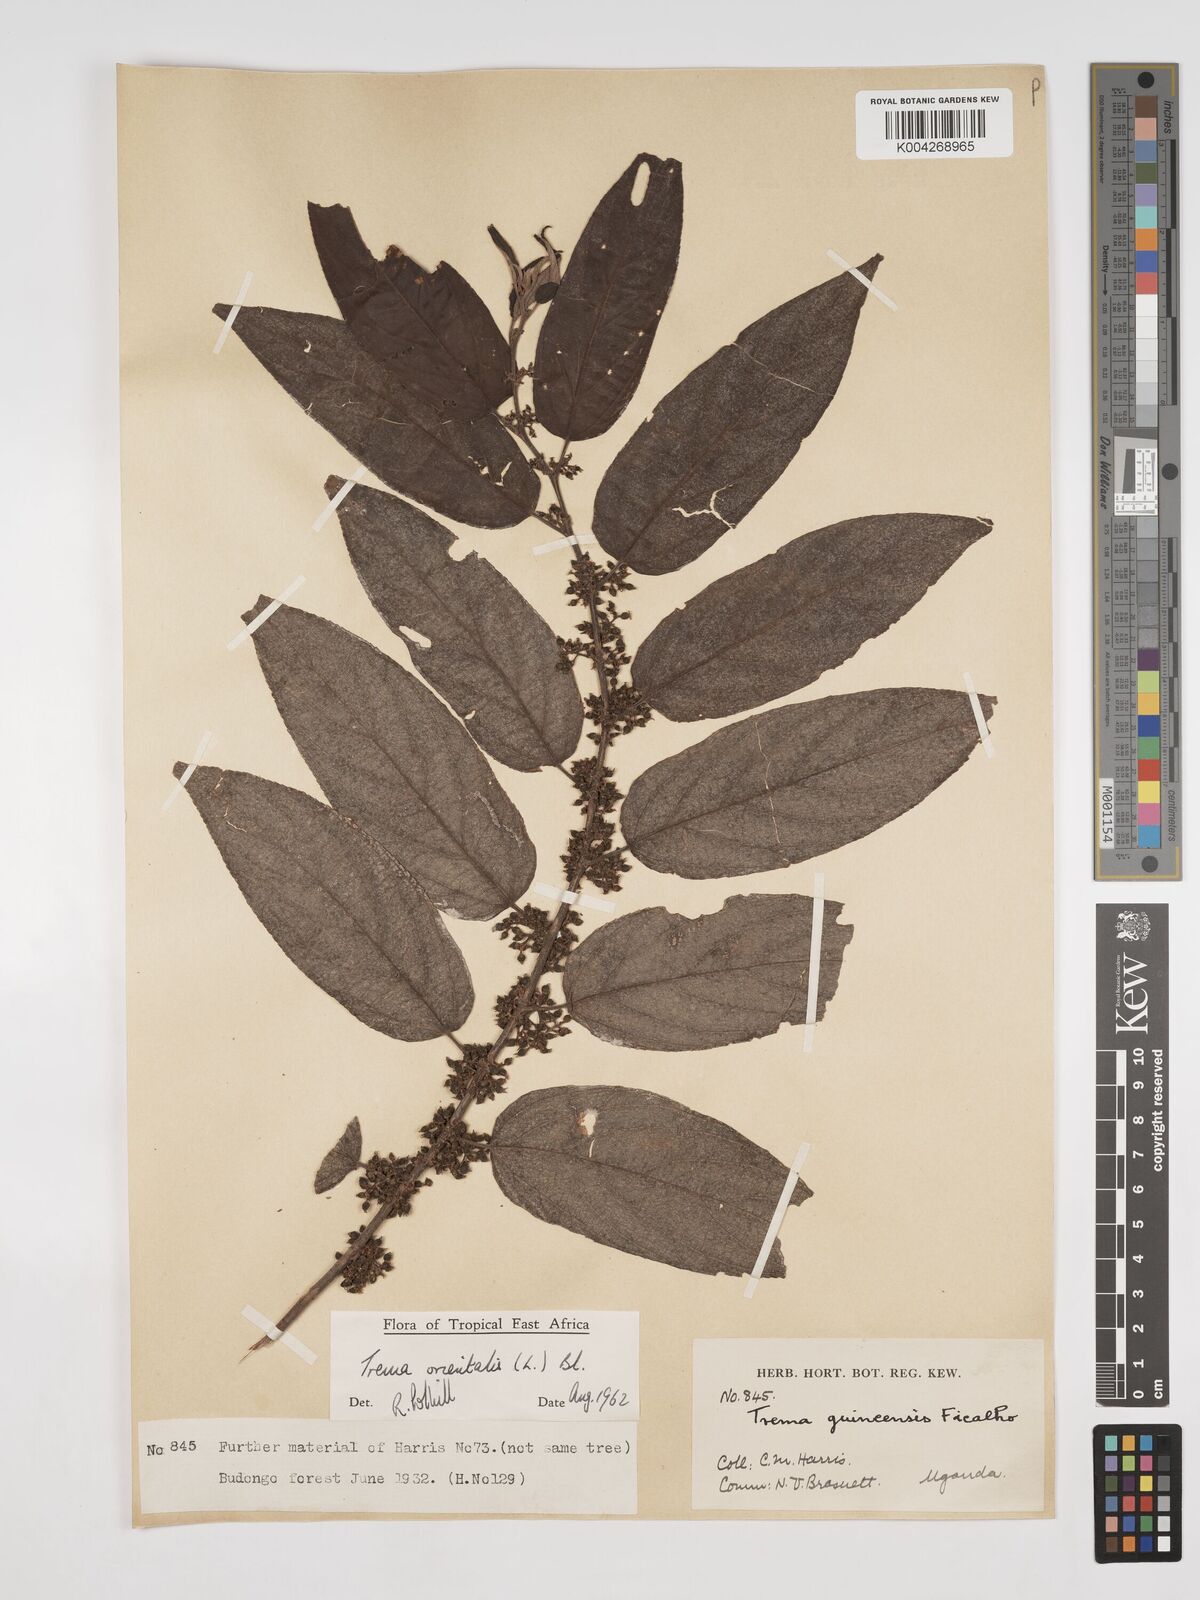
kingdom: Plantae
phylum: Tracheophyta
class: Magnoliopsida
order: Rosales
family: Cannabaceae
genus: Trema
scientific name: Trema orientale
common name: Indian charcoal tree
